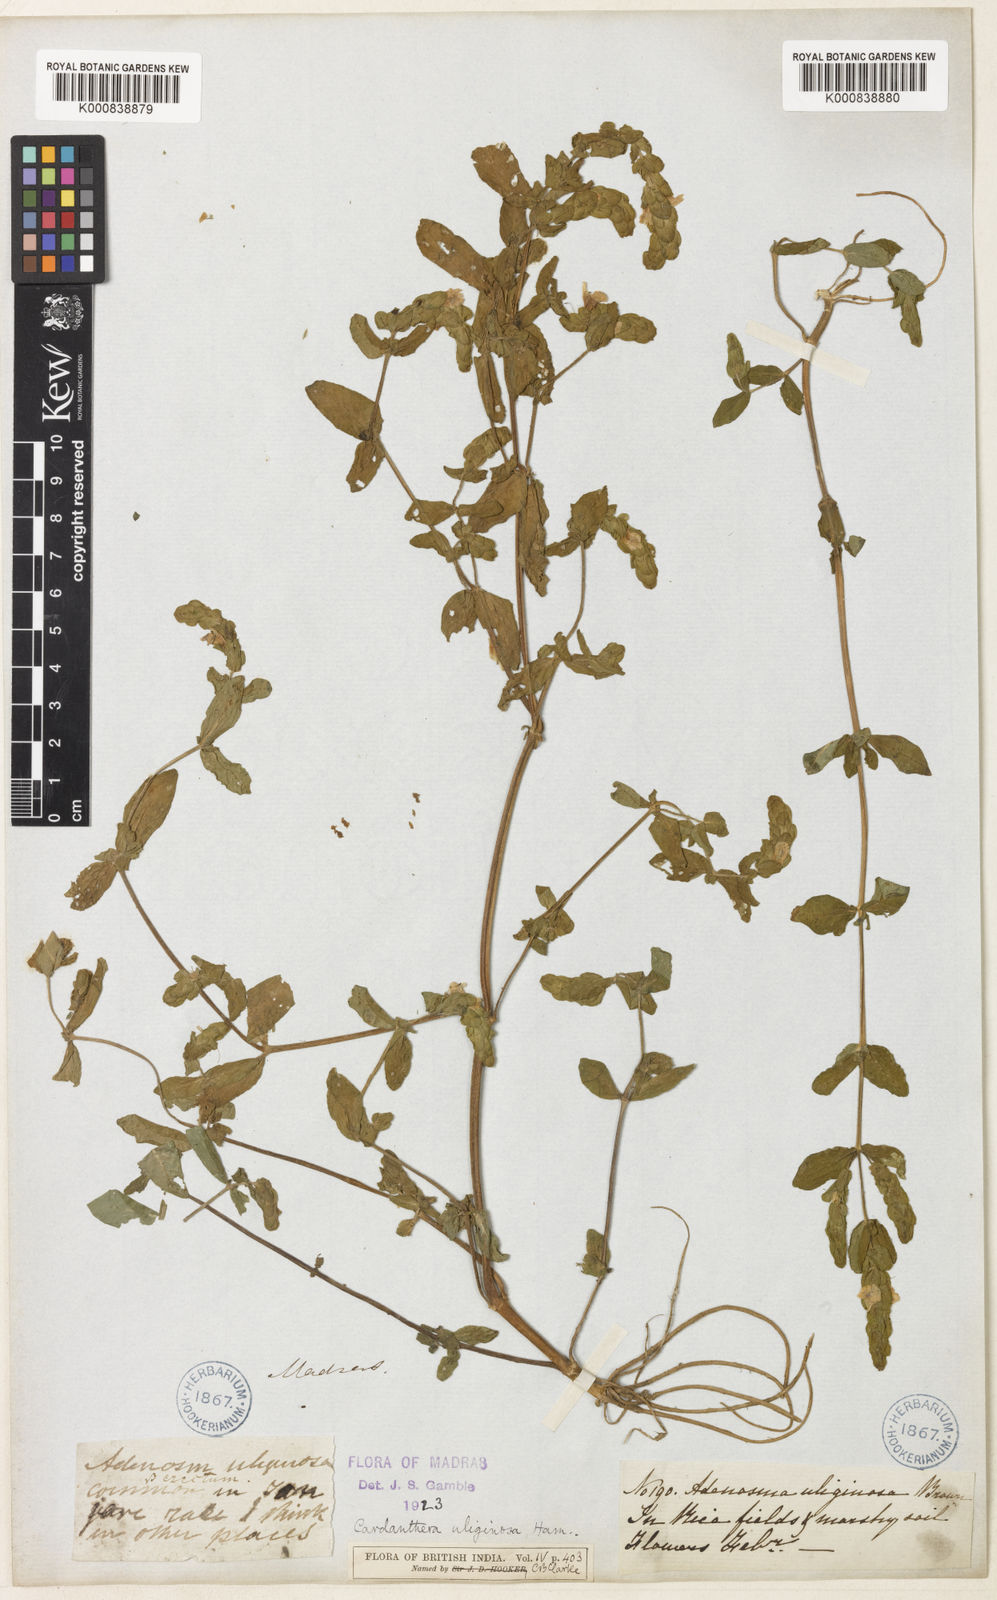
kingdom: Plantae
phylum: Tracheophyta
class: Magnoliopsida
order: Lamiales
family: Acanthaceae
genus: Staurogyne
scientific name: Staurogyne zeylanica
